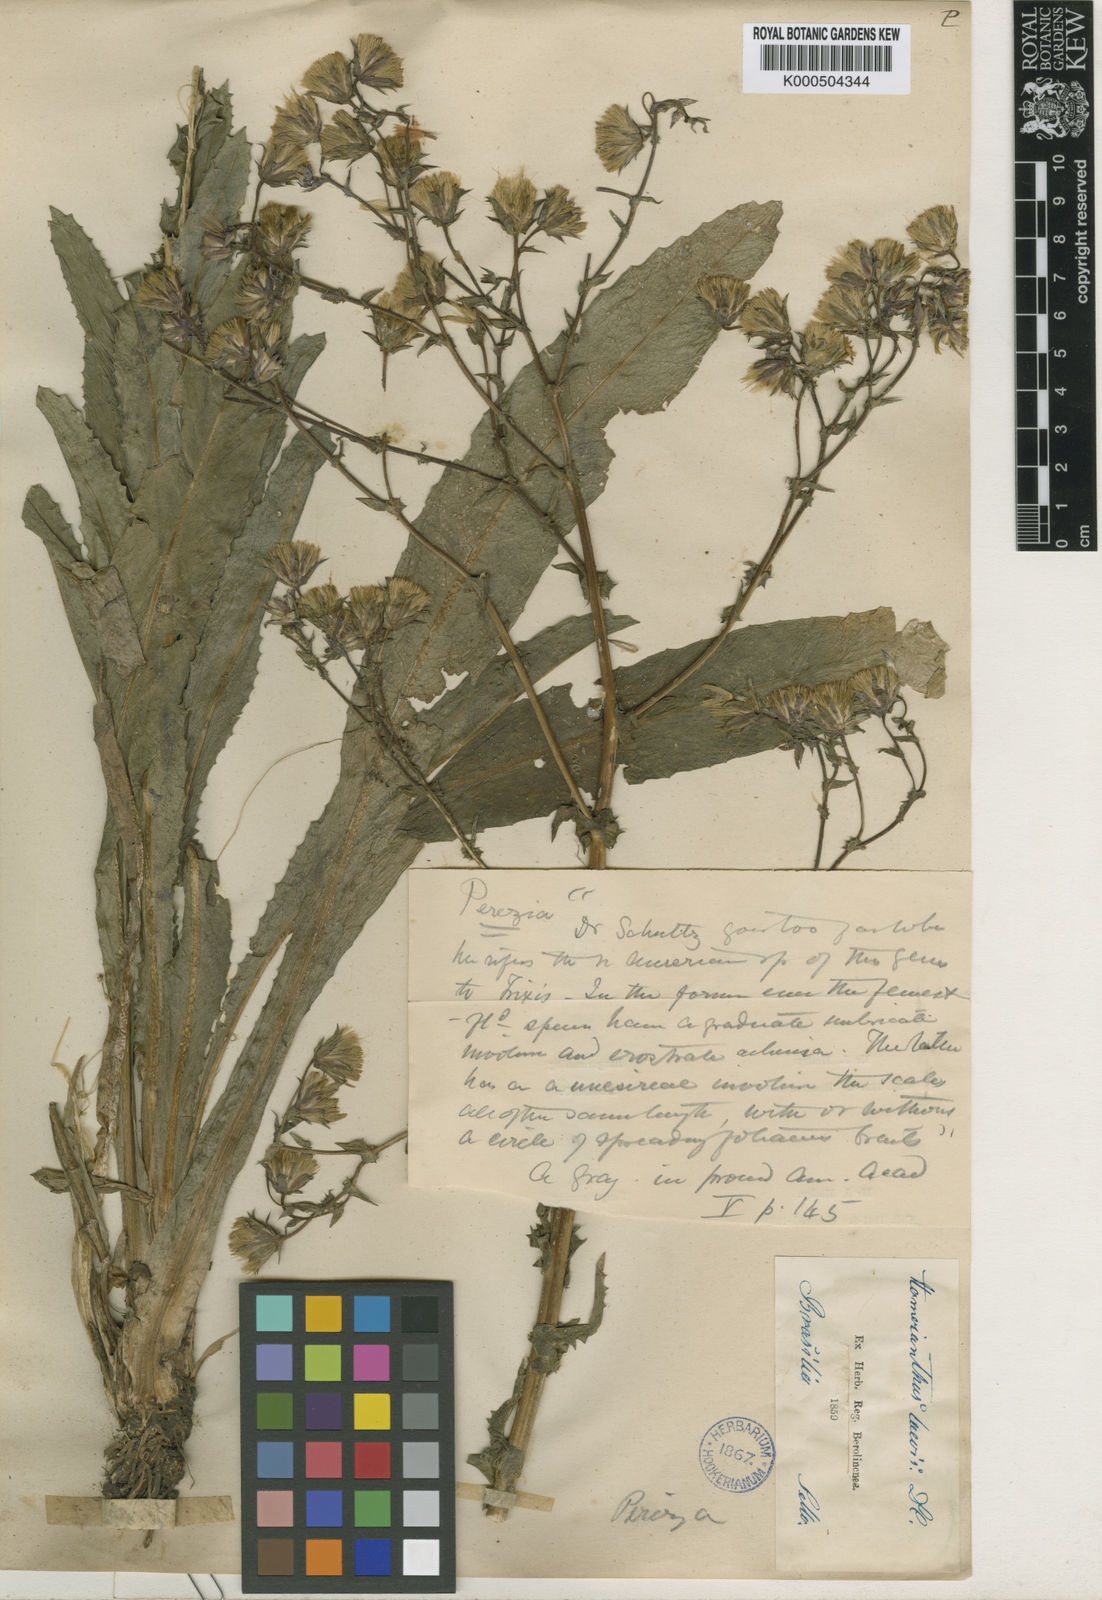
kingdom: Plantae
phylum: Tracheophyta
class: Magnoliopsida
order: Asterales
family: Asteraceae
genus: Perezia
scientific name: Perezia squarrosa
